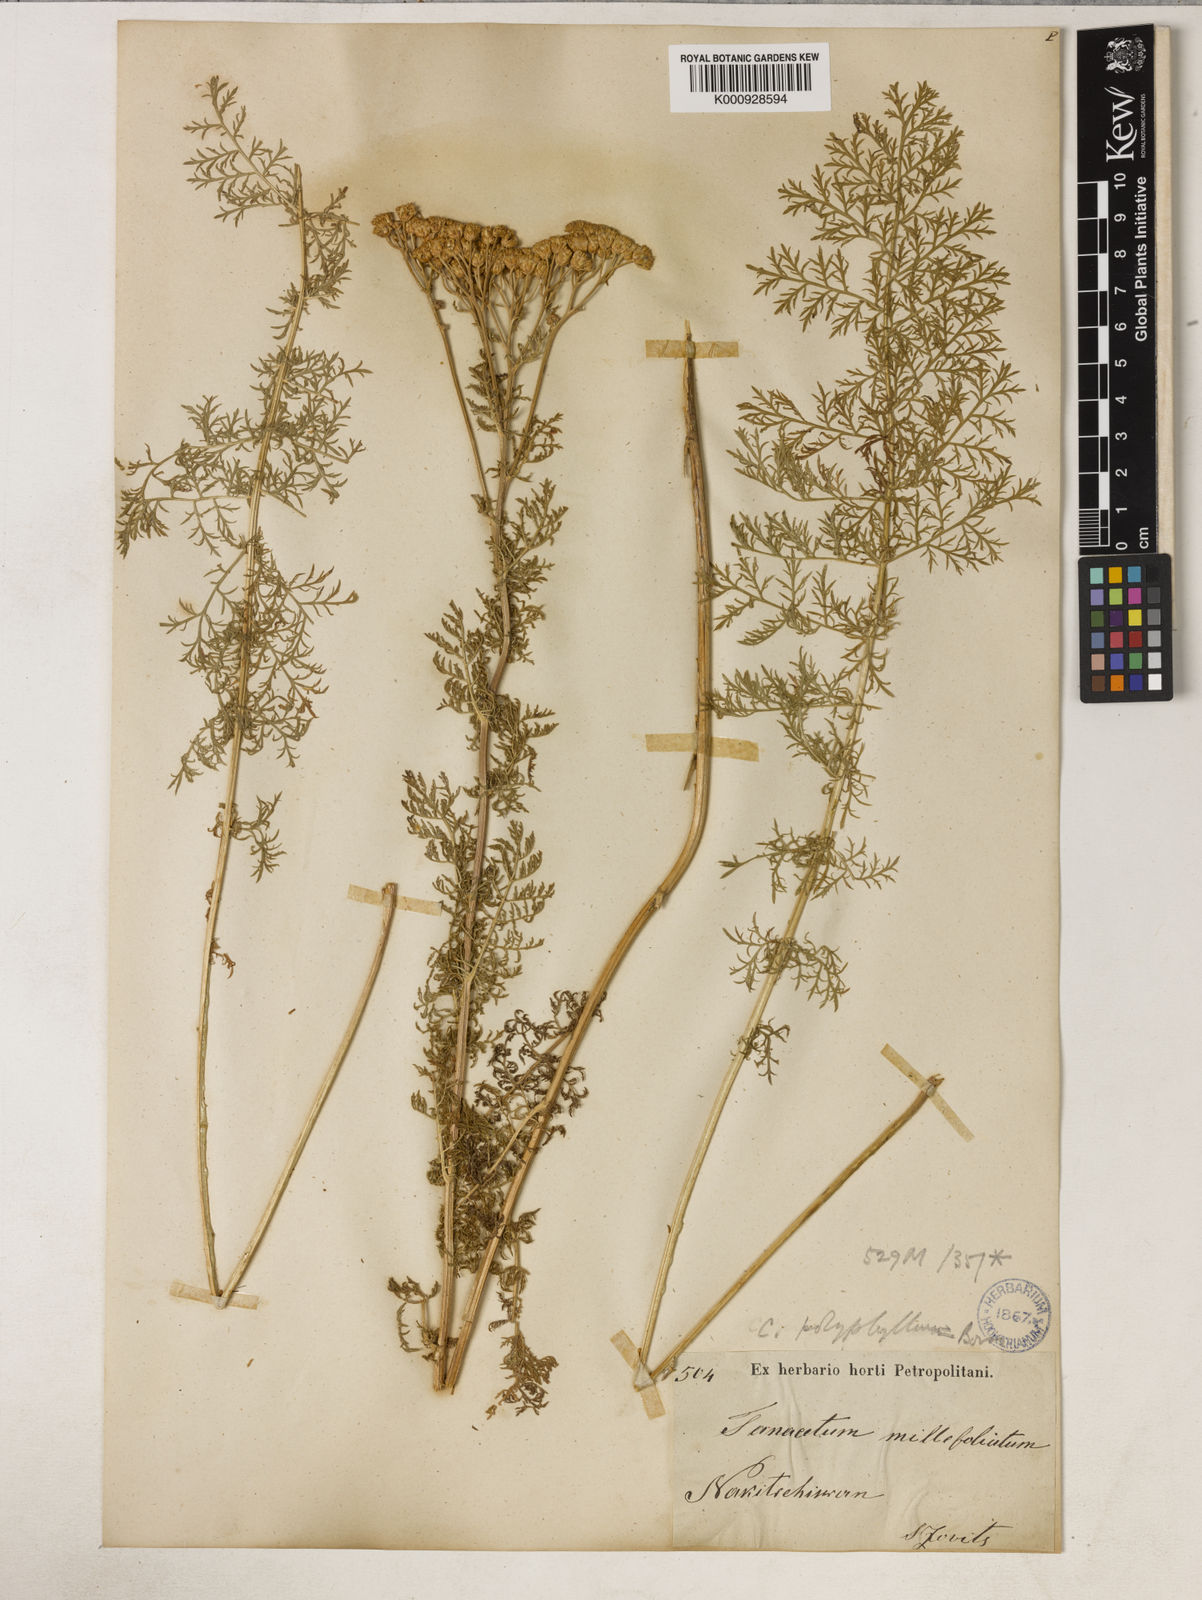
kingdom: Plantae
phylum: Tracheophyta
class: Magnoliopsida
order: Asterales
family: Asteraceae
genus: Tanacetum
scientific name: Tanacetum abrotanifolium
